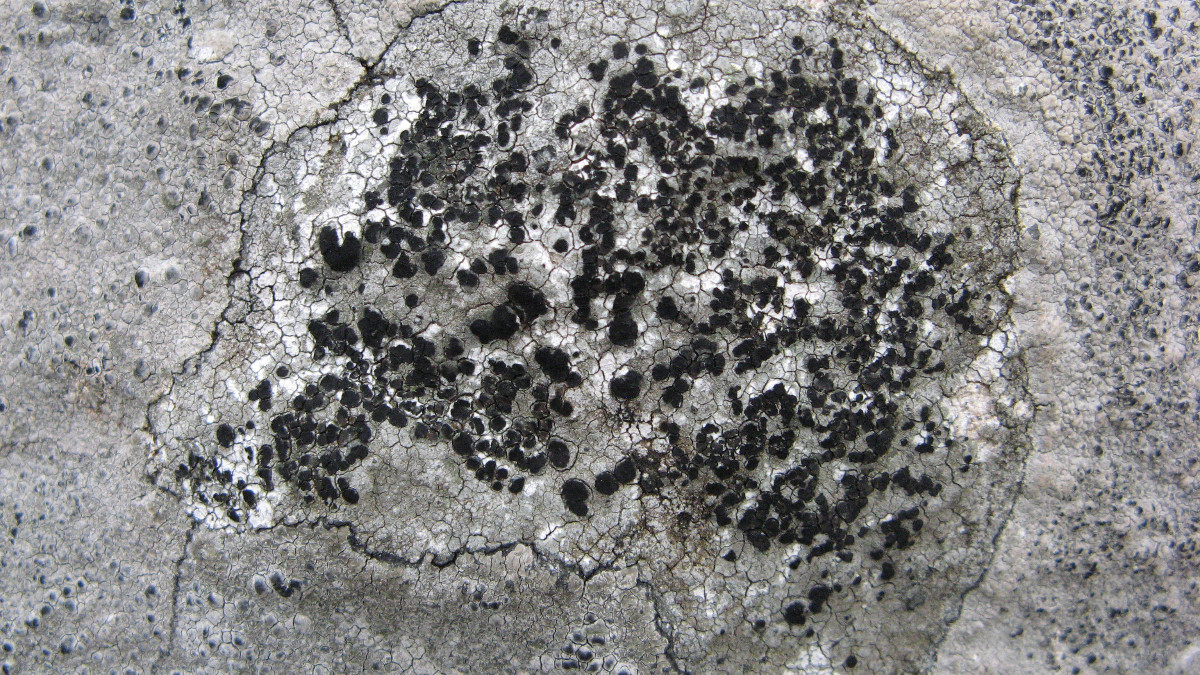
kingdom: Fungi
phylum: Ascomycota
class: Lecanoromycetes
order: Lecideales
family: Lecideaceae
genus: Porpidia
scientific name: Porpidia macrocarpa
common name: almindelig bredskivelav
